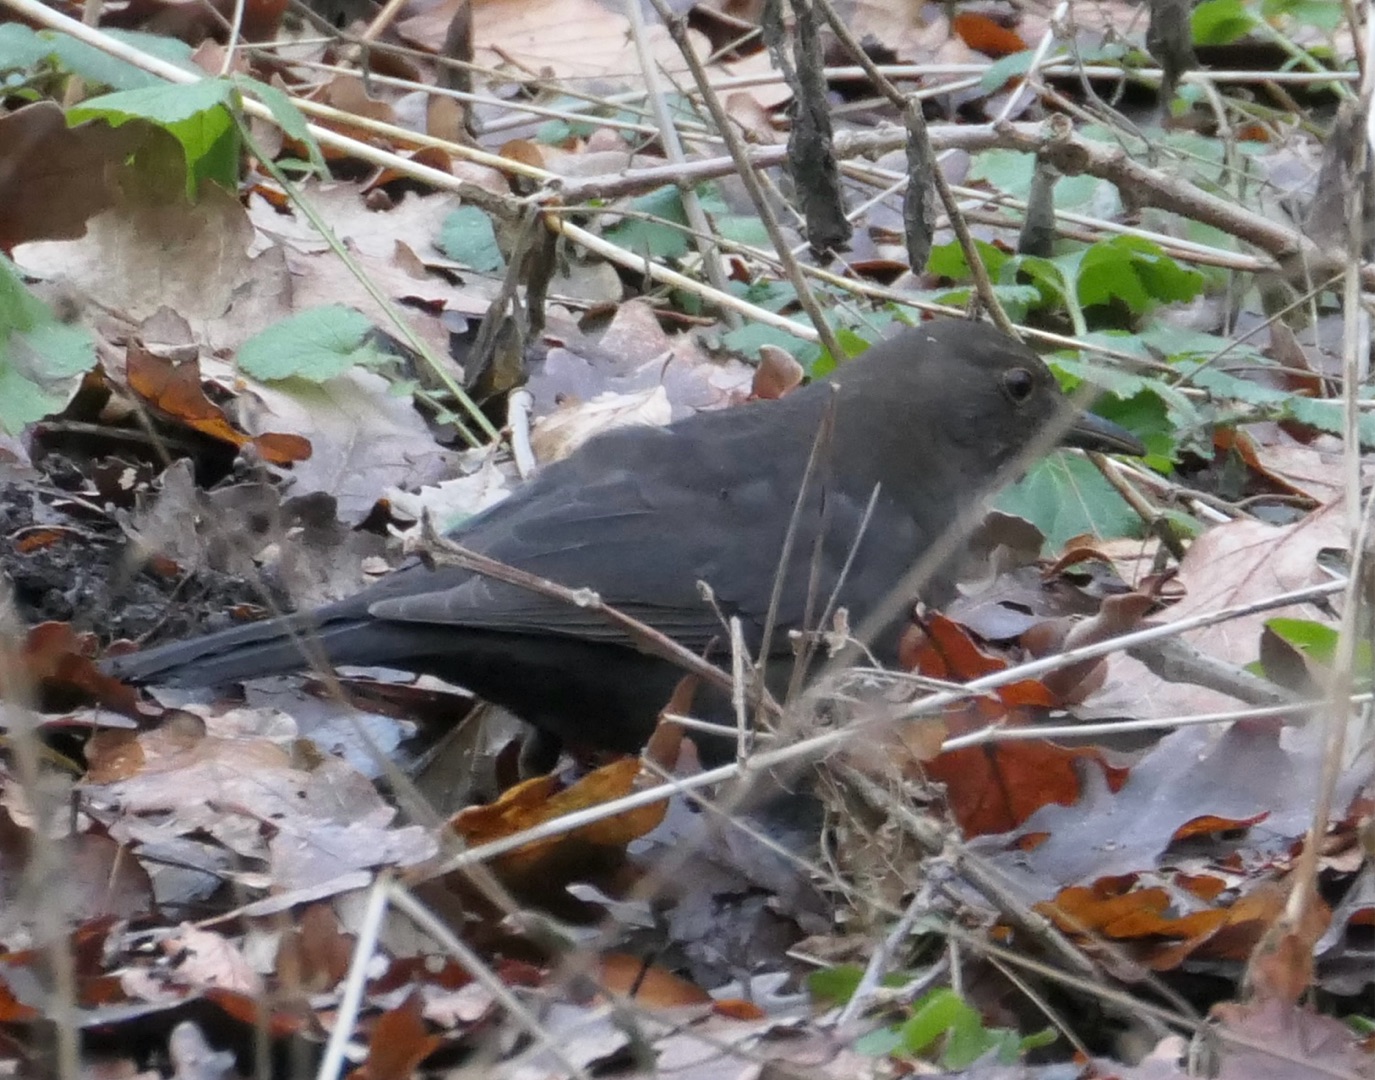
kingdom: Animalia
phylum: Chordata
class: Aves
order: Passeriformes
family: Turdidae
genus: Turdus
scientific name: Turdus merula
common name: Solsort
